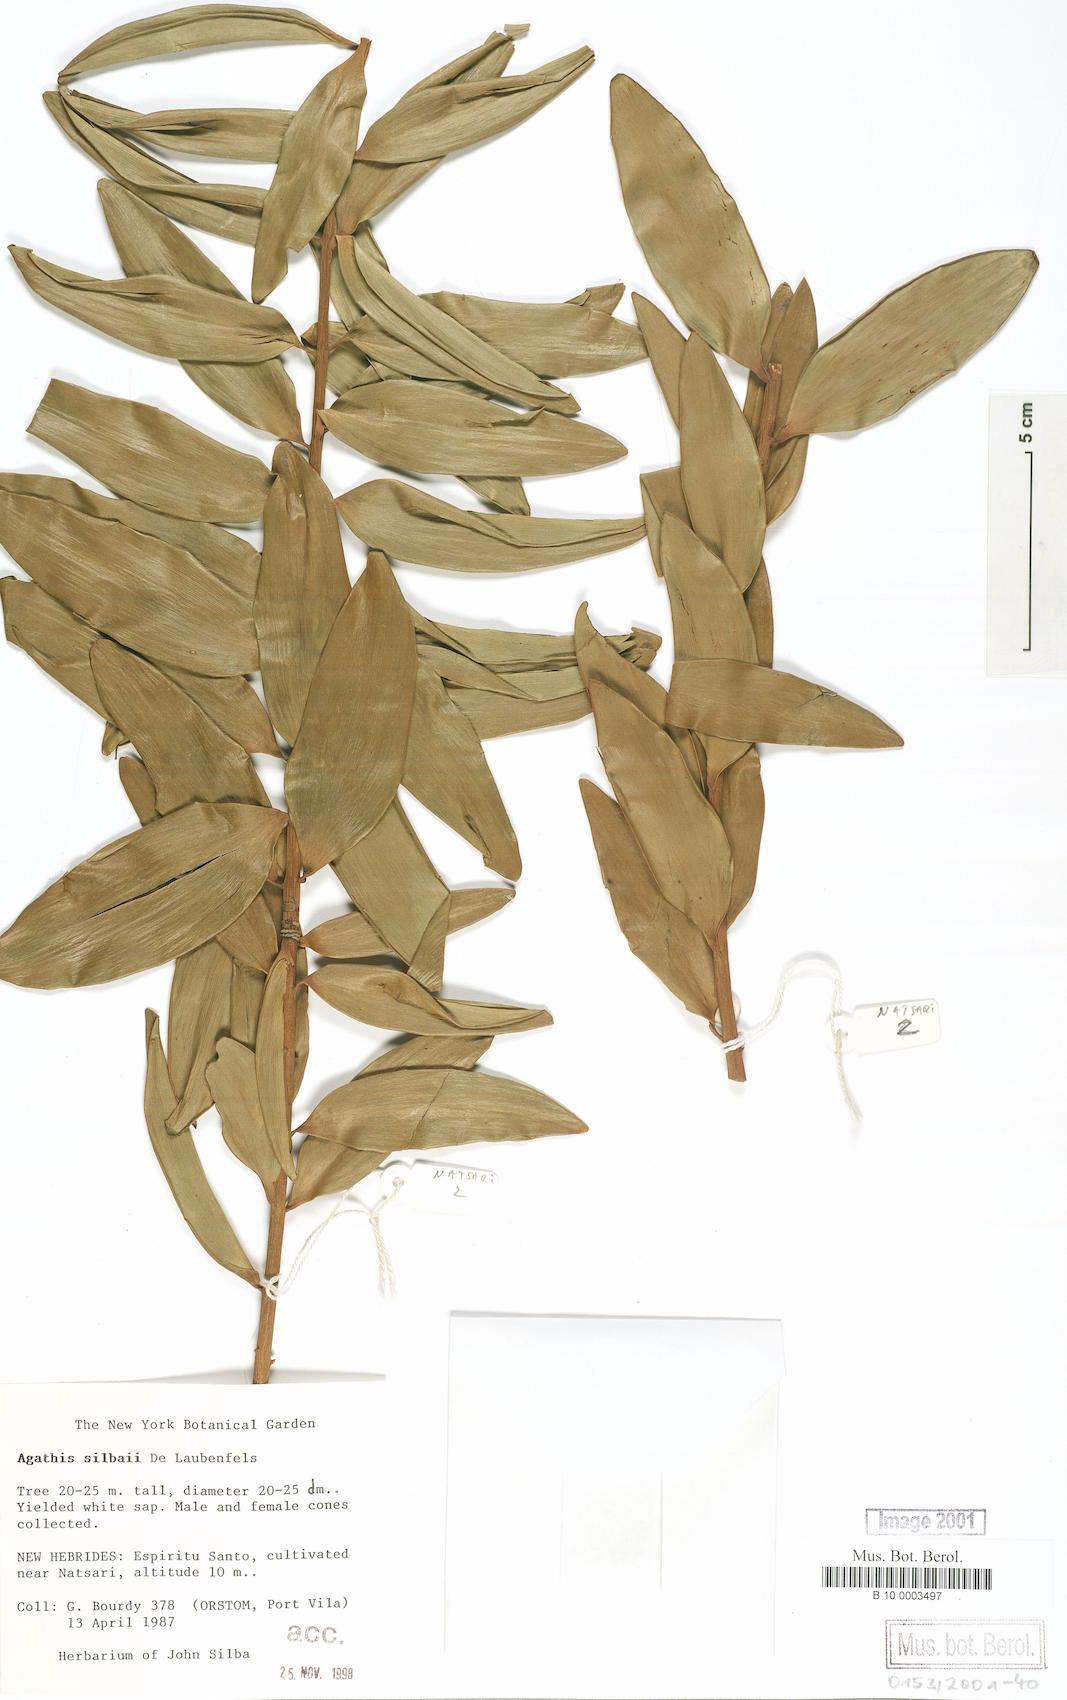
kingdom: Plantae
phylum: Tracheophyta
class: Pinopsida
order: Pinales
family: Araucariaceae
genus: Agathis
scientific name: Agathis silbae
